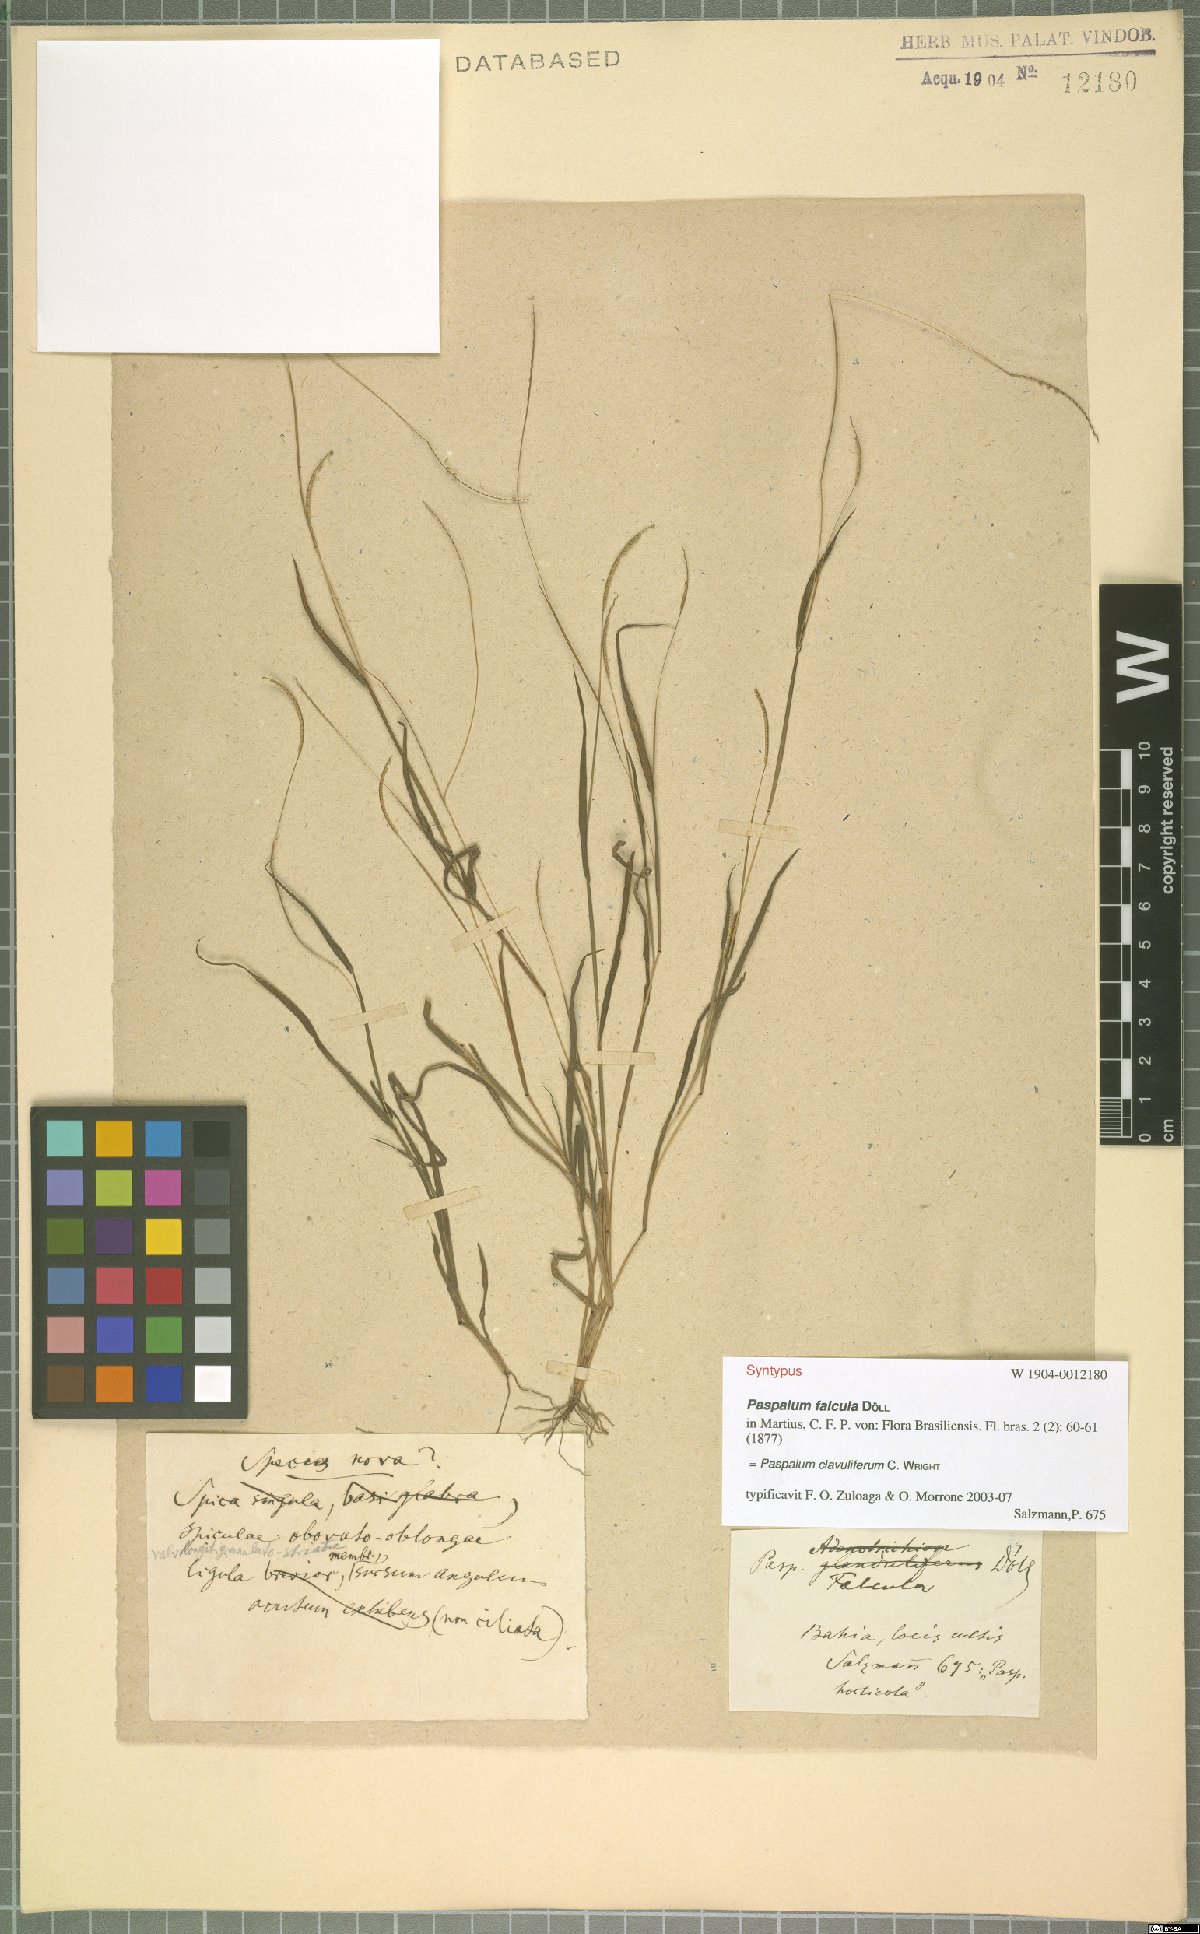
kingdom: Plantae
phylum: Tracheophyta
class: Liliopsida
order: Poales
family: Poaceae
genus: Paspalum
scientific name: Paspalum clavuliferum
